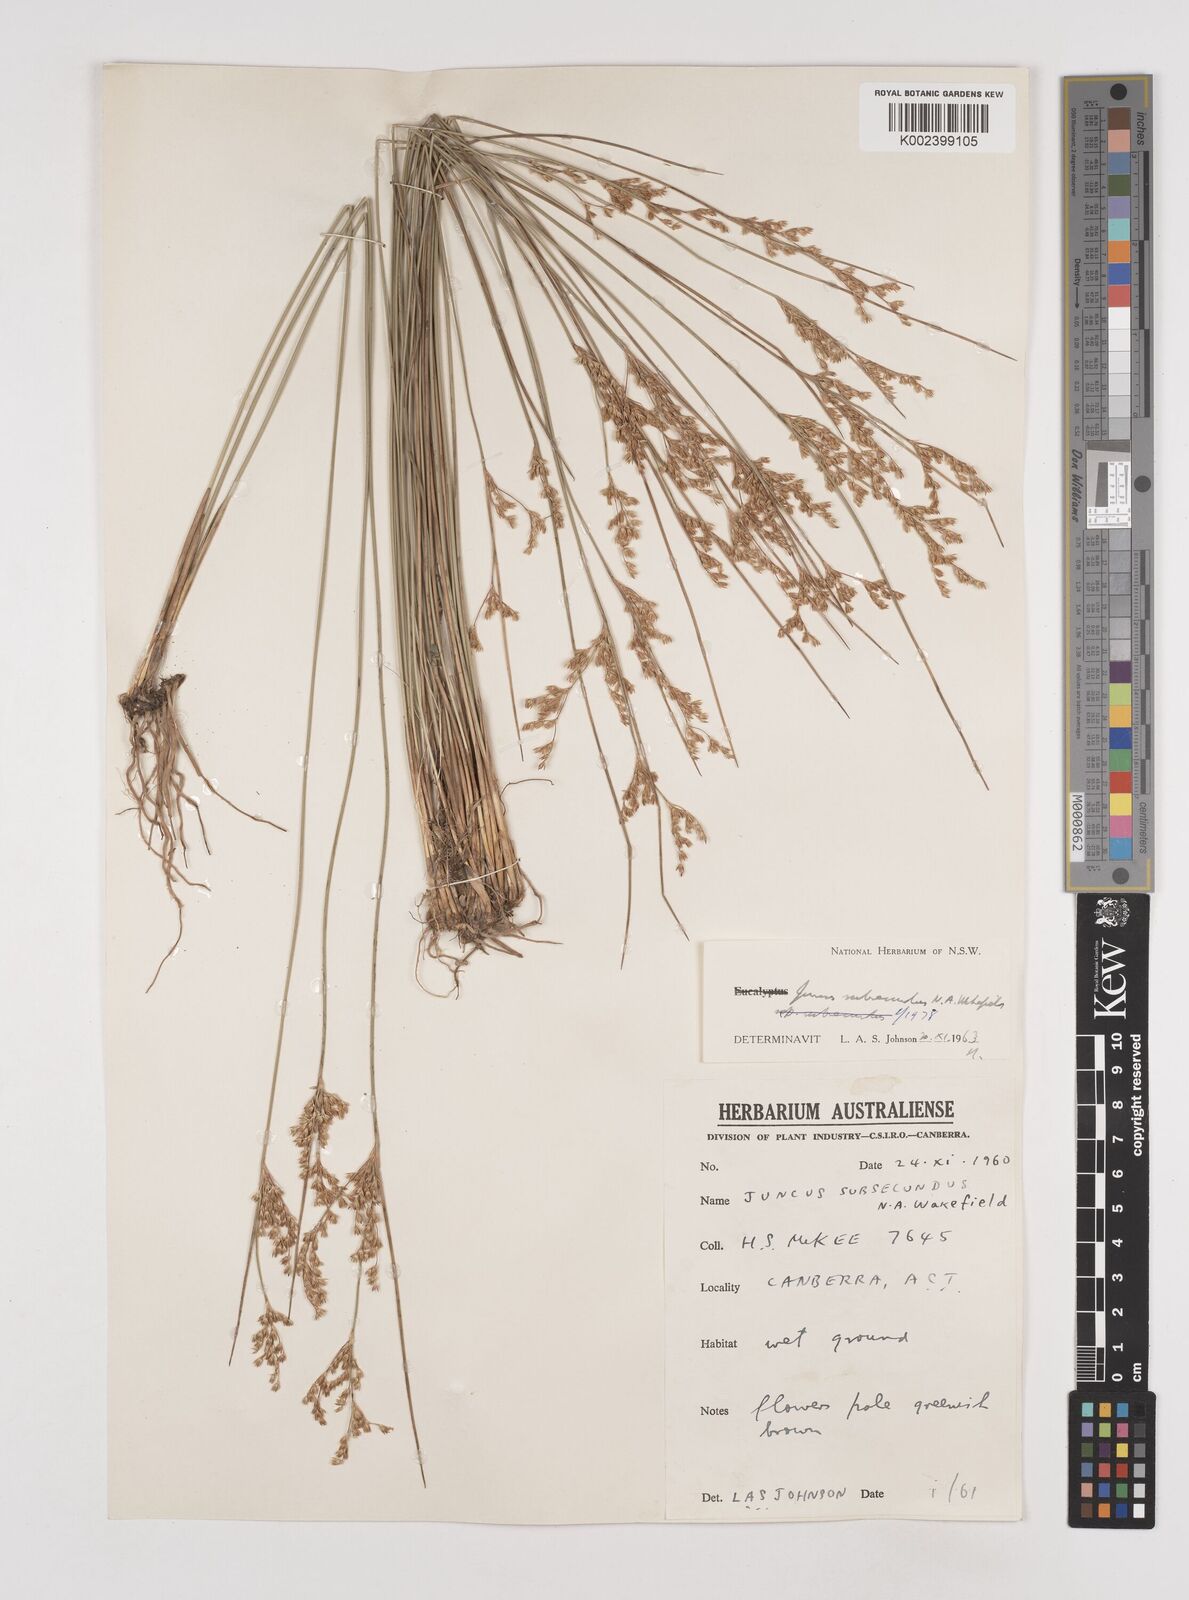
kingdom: Plantae
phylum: Tracheophyta
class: Liliopsida
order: Poales
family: Juncaceae
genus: Juncus
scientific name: Juncus subsecundus
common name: Fingered rush
